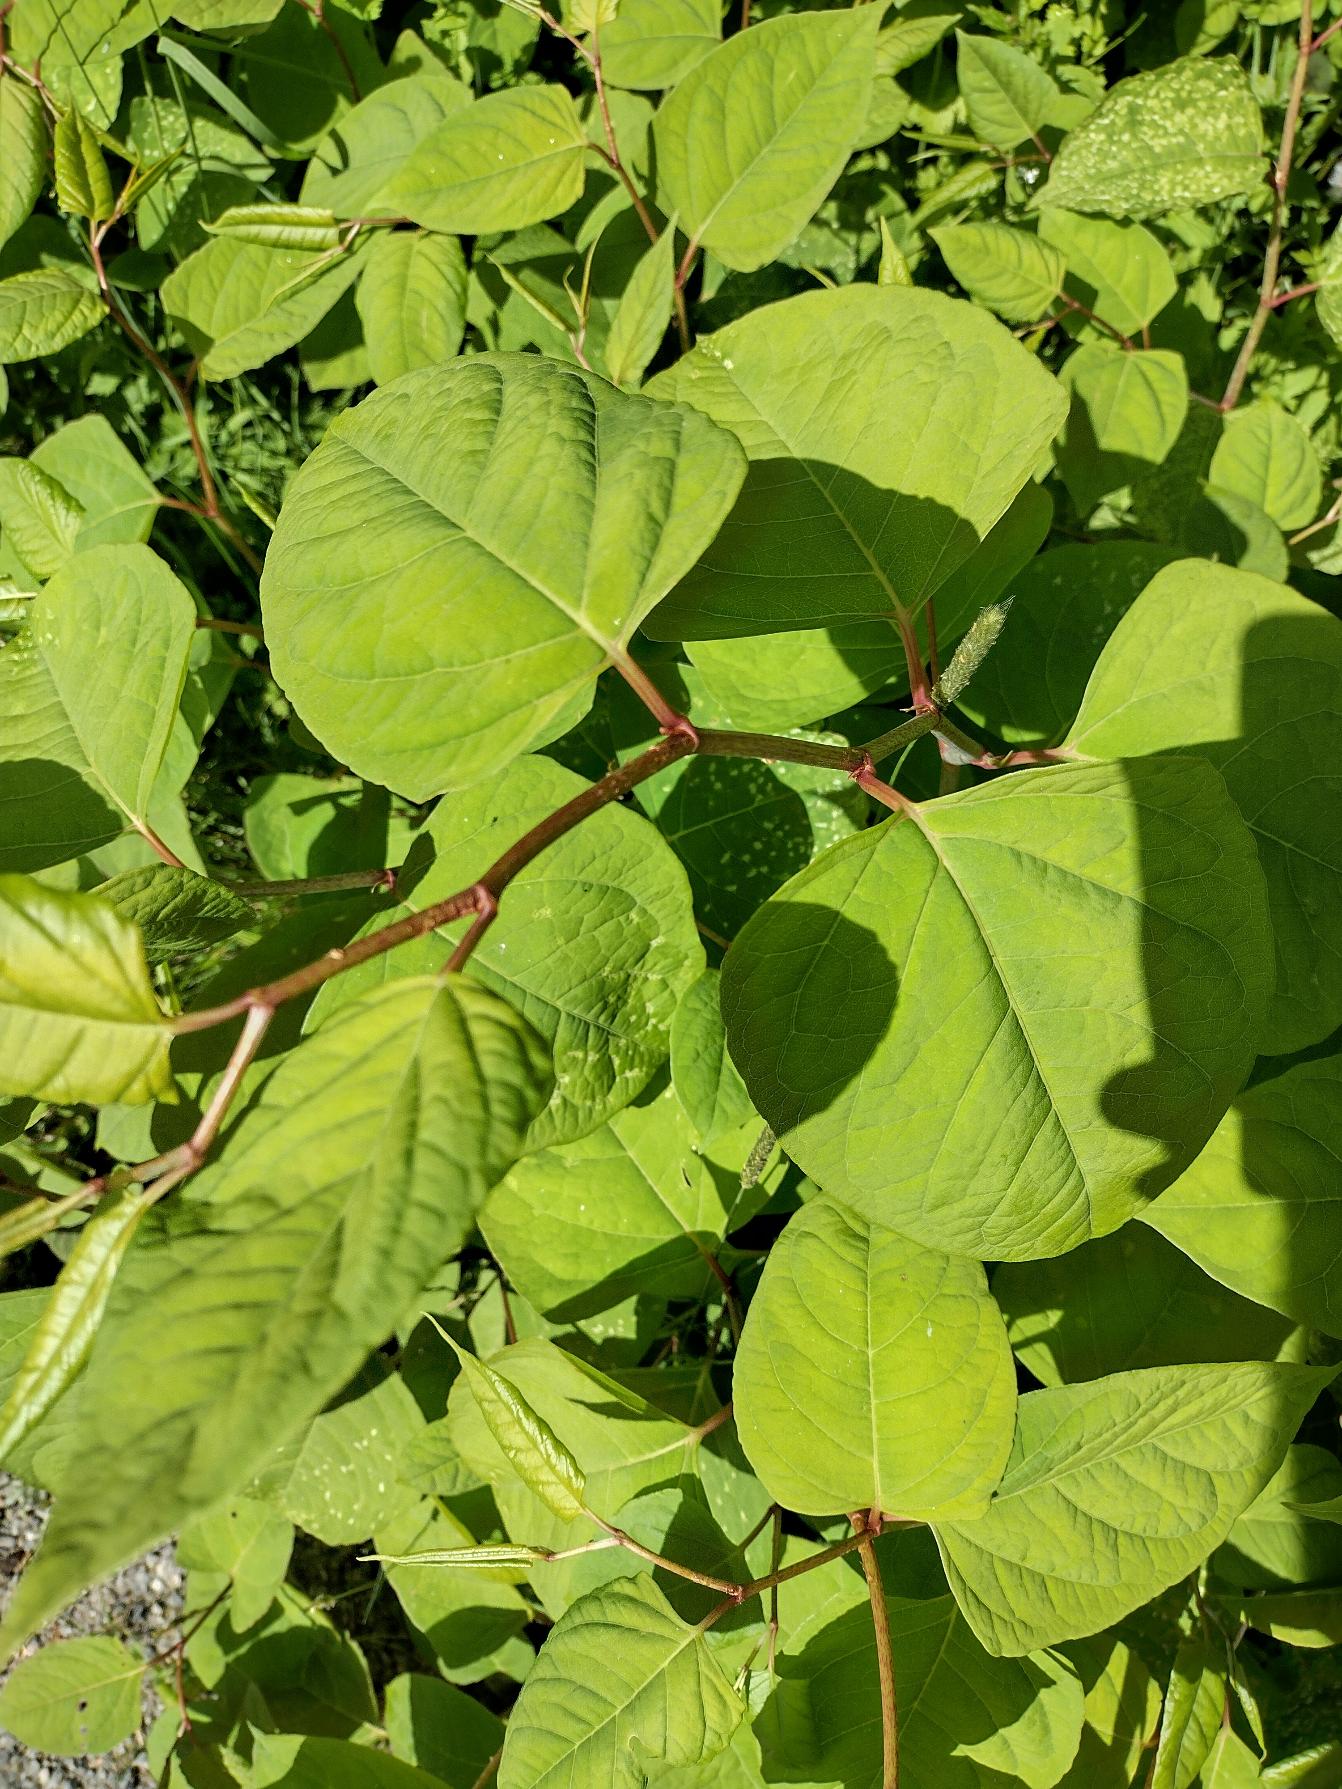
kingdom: Plantae
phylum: Tracheophyta
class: Magnoliopsida
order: Caryophyllales
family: Polygonaceae
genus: Reynoutria
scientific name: Reynoutria japonica
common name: Japan-pileurt
